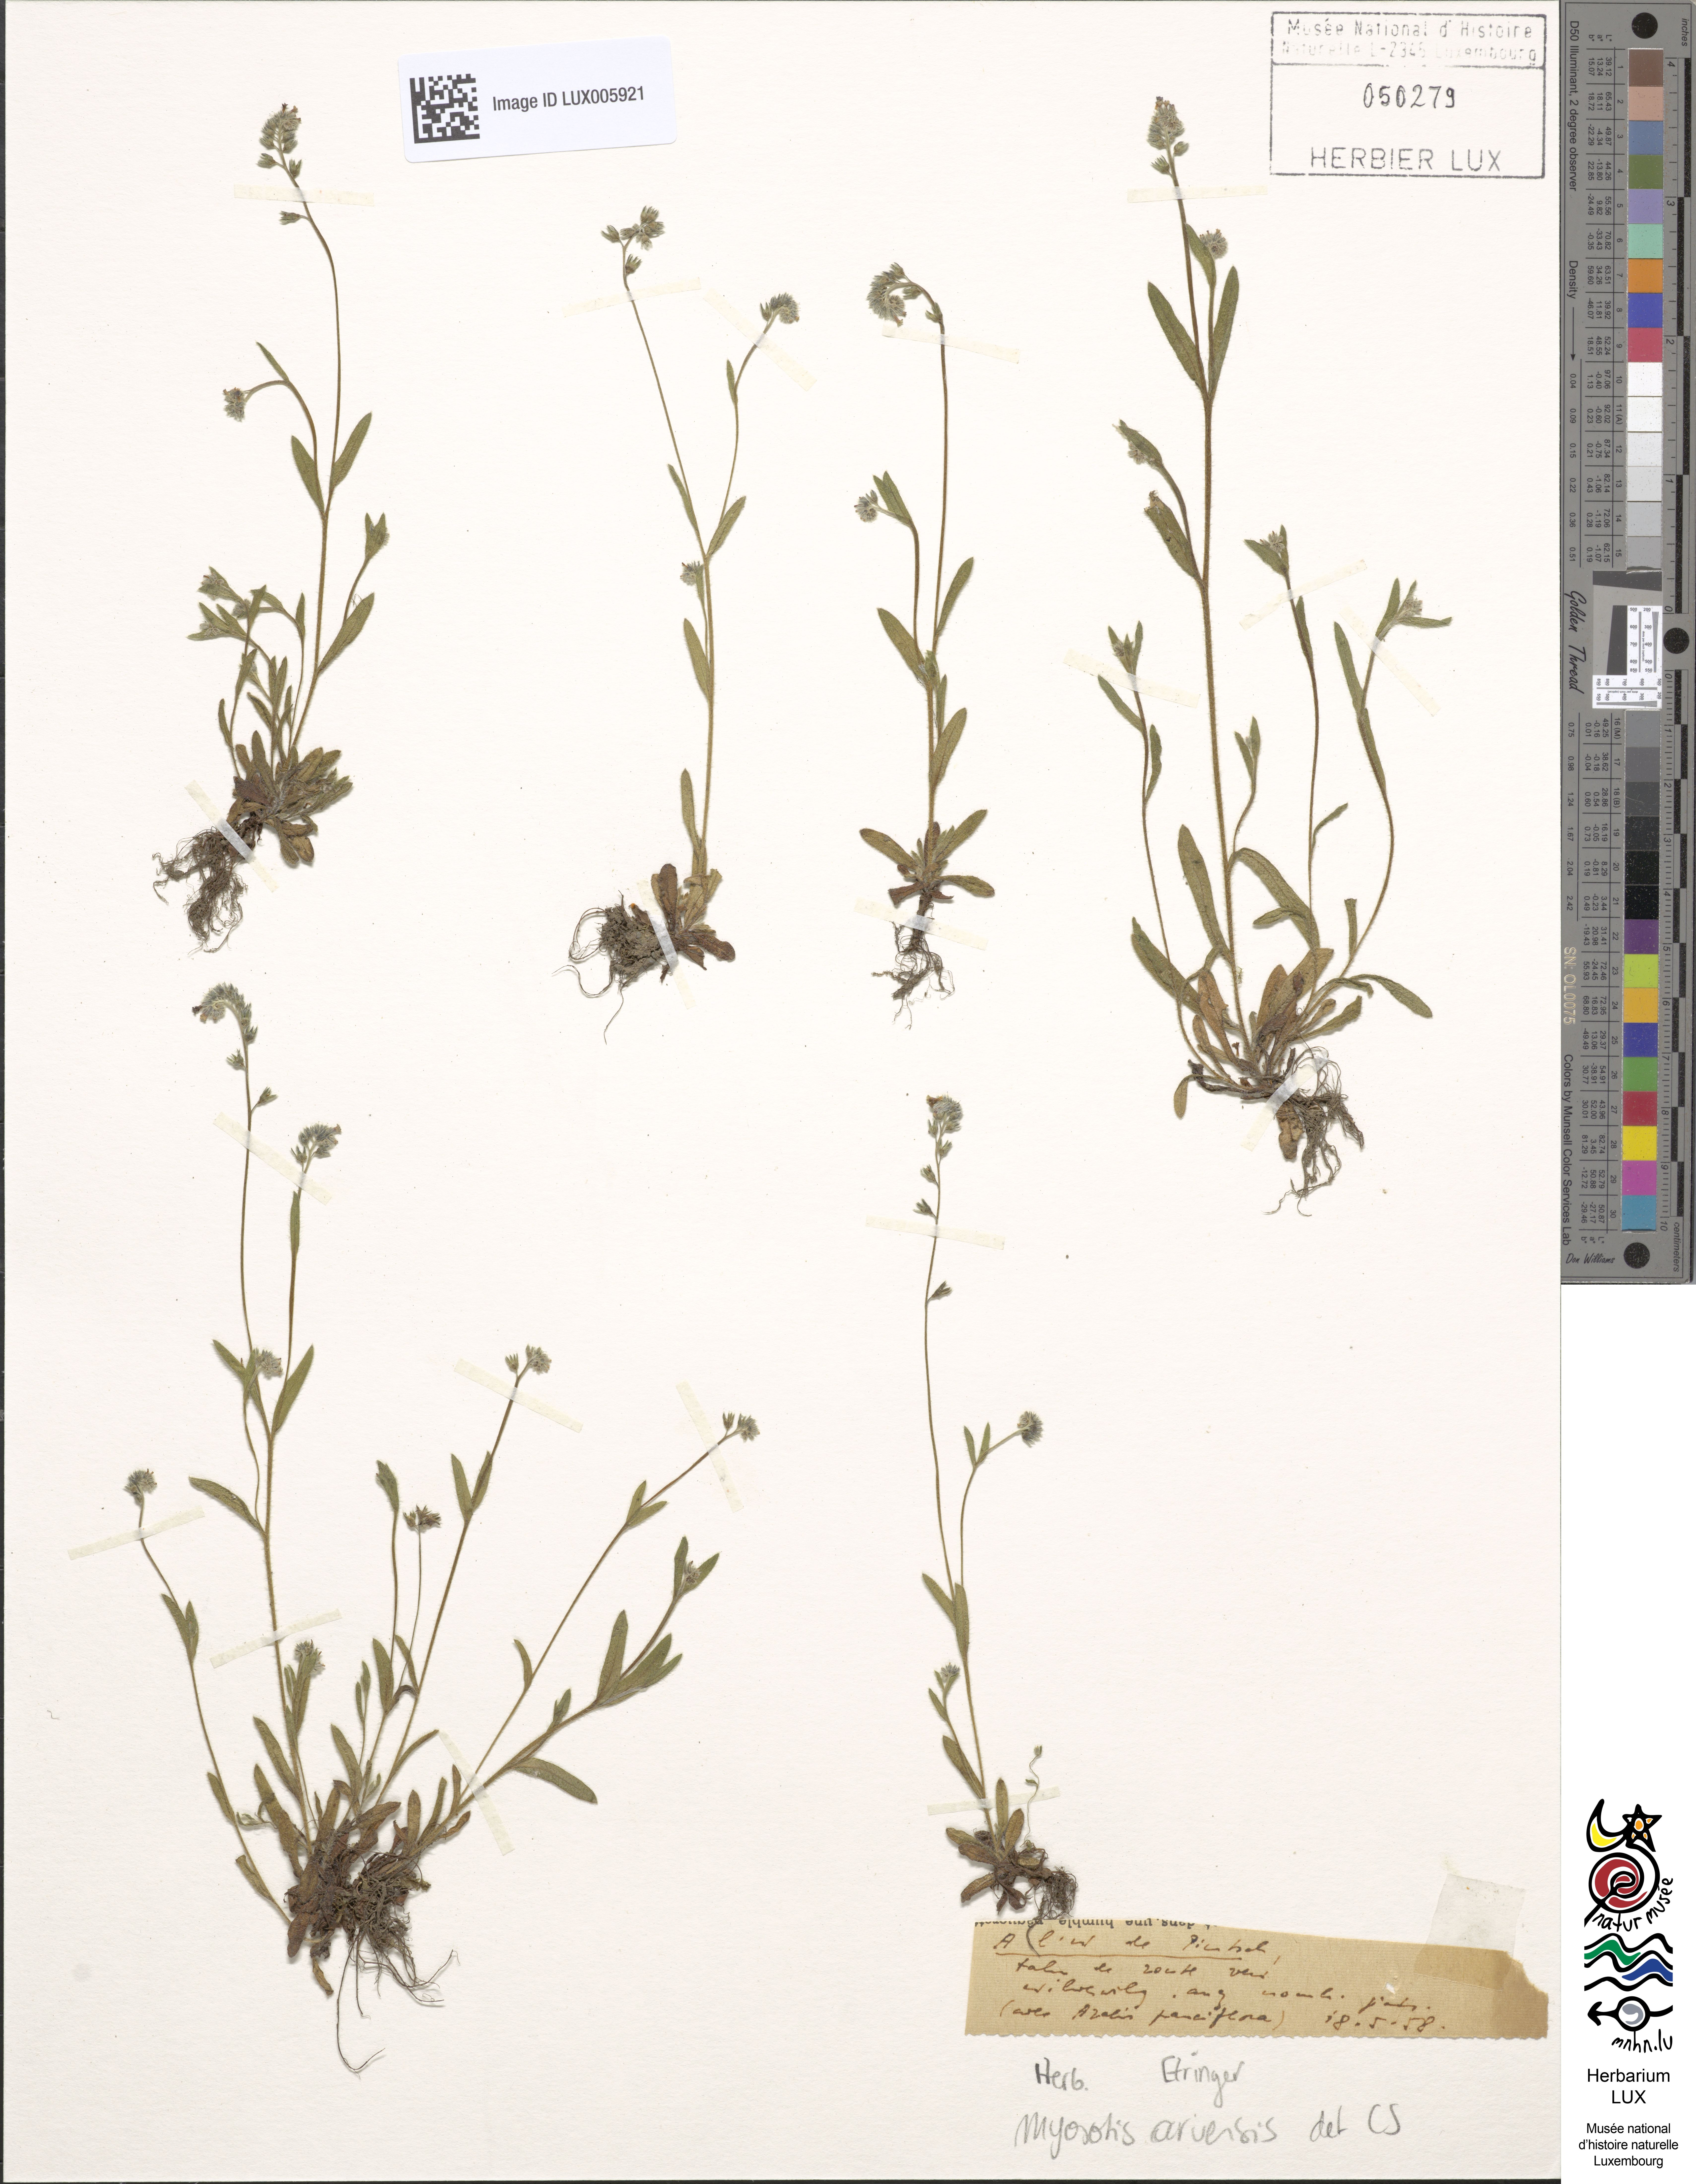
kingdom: Plantae
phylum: Tracheophyta
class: Magnoliopsida
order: Boraginales
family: Boraginaceae
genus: Myosotis
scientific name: Myosotis arvensis
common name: Field forget-me-not
